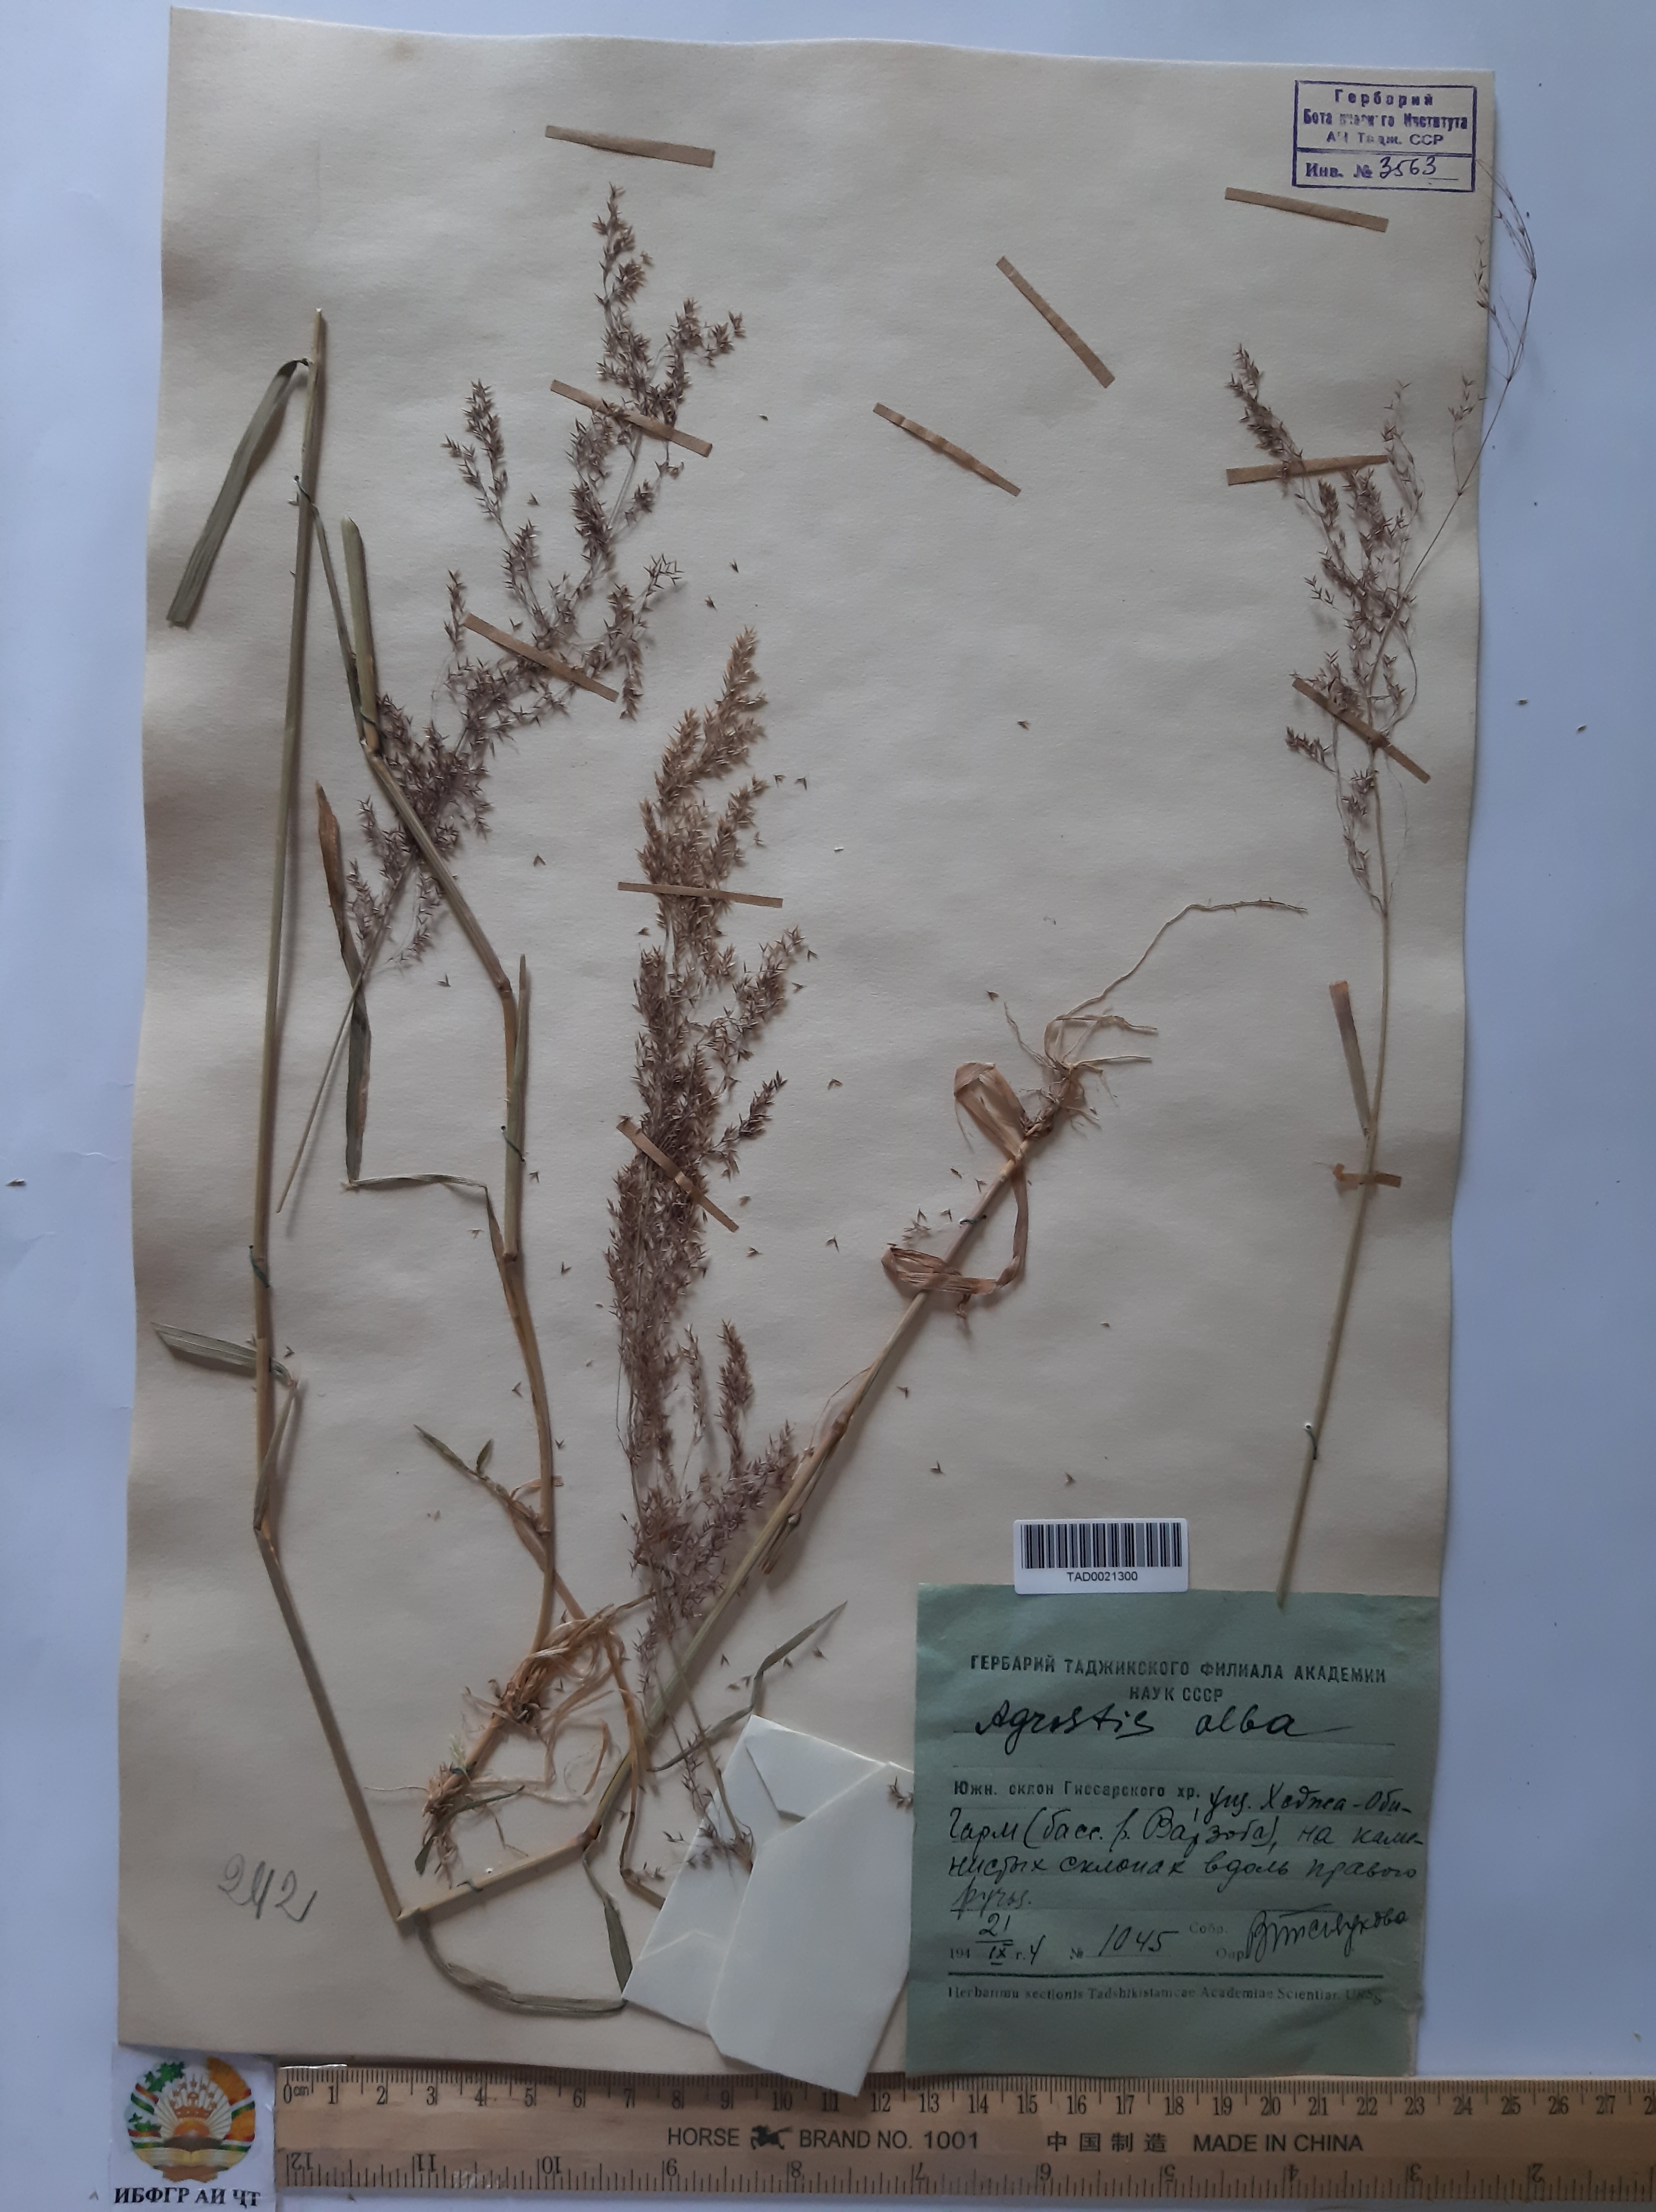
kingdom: Plantae
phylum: Tracheophyta
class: Liliopsida
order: Poales
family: Poaceae
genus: Poa
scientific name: Poa nemoralis
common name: Wood bluegrass
